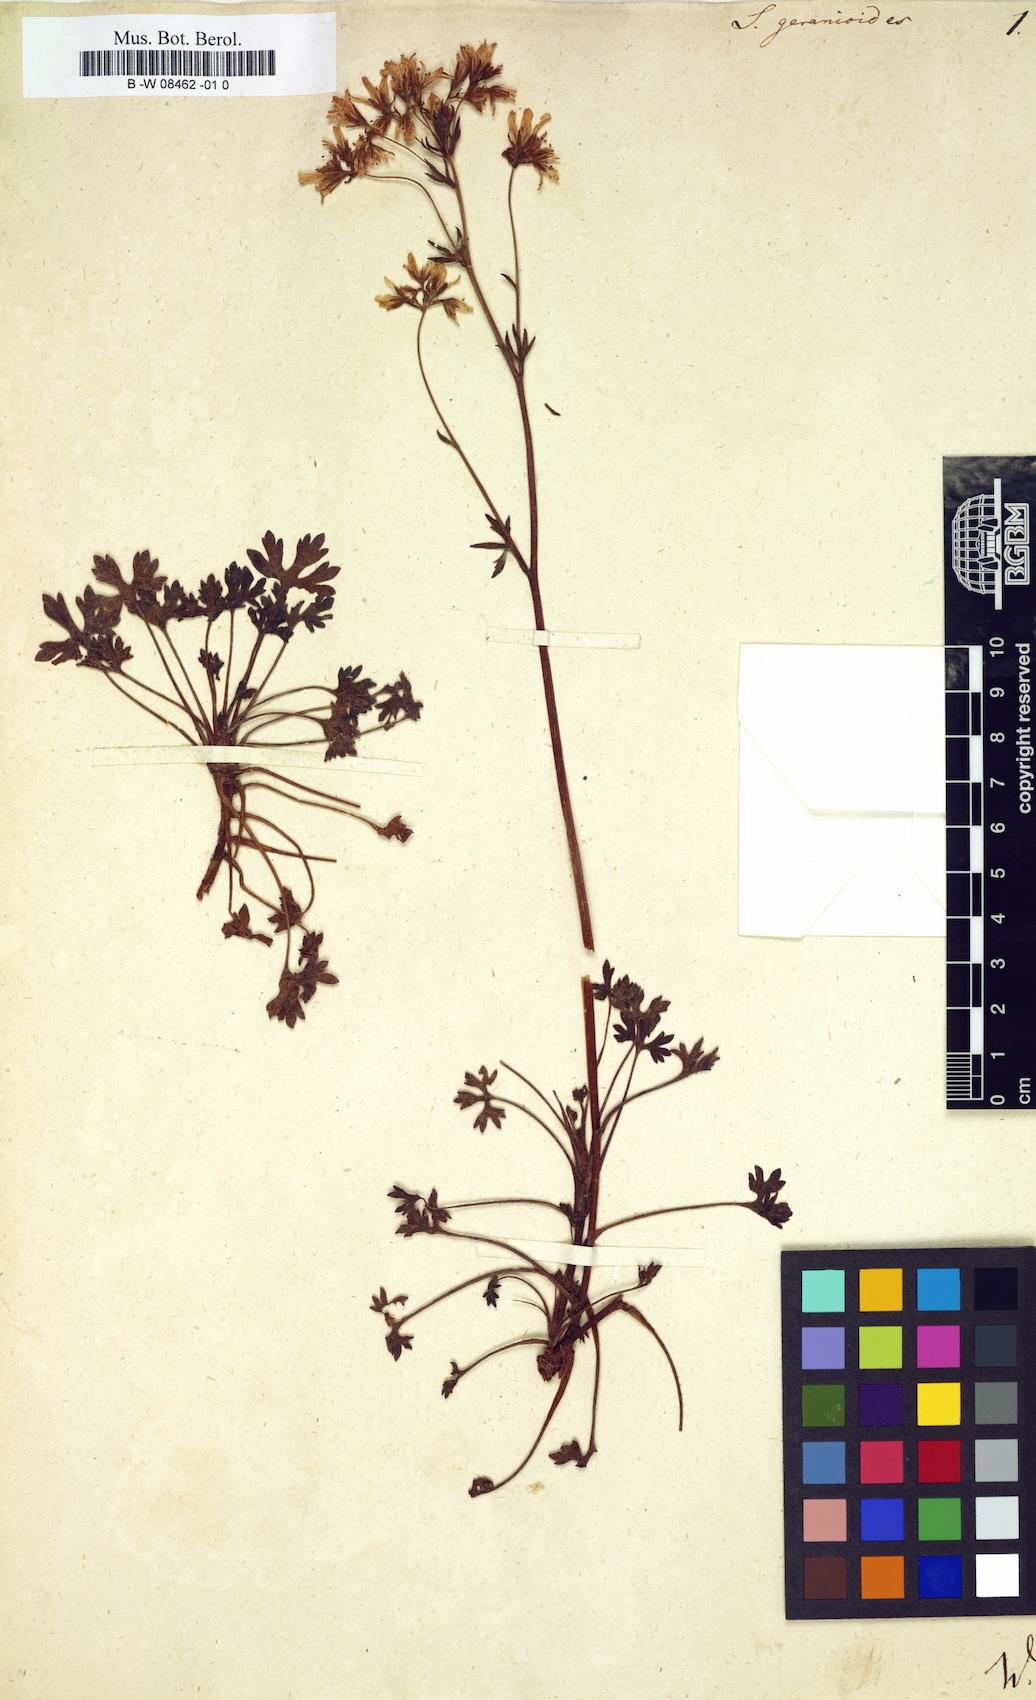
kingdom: Plantae
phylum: Tracheophyta
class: Magnoliopsida
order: Saxifragales
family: Saxifragaceae
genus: Saxifraga
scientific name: Saxifraga geranioides
